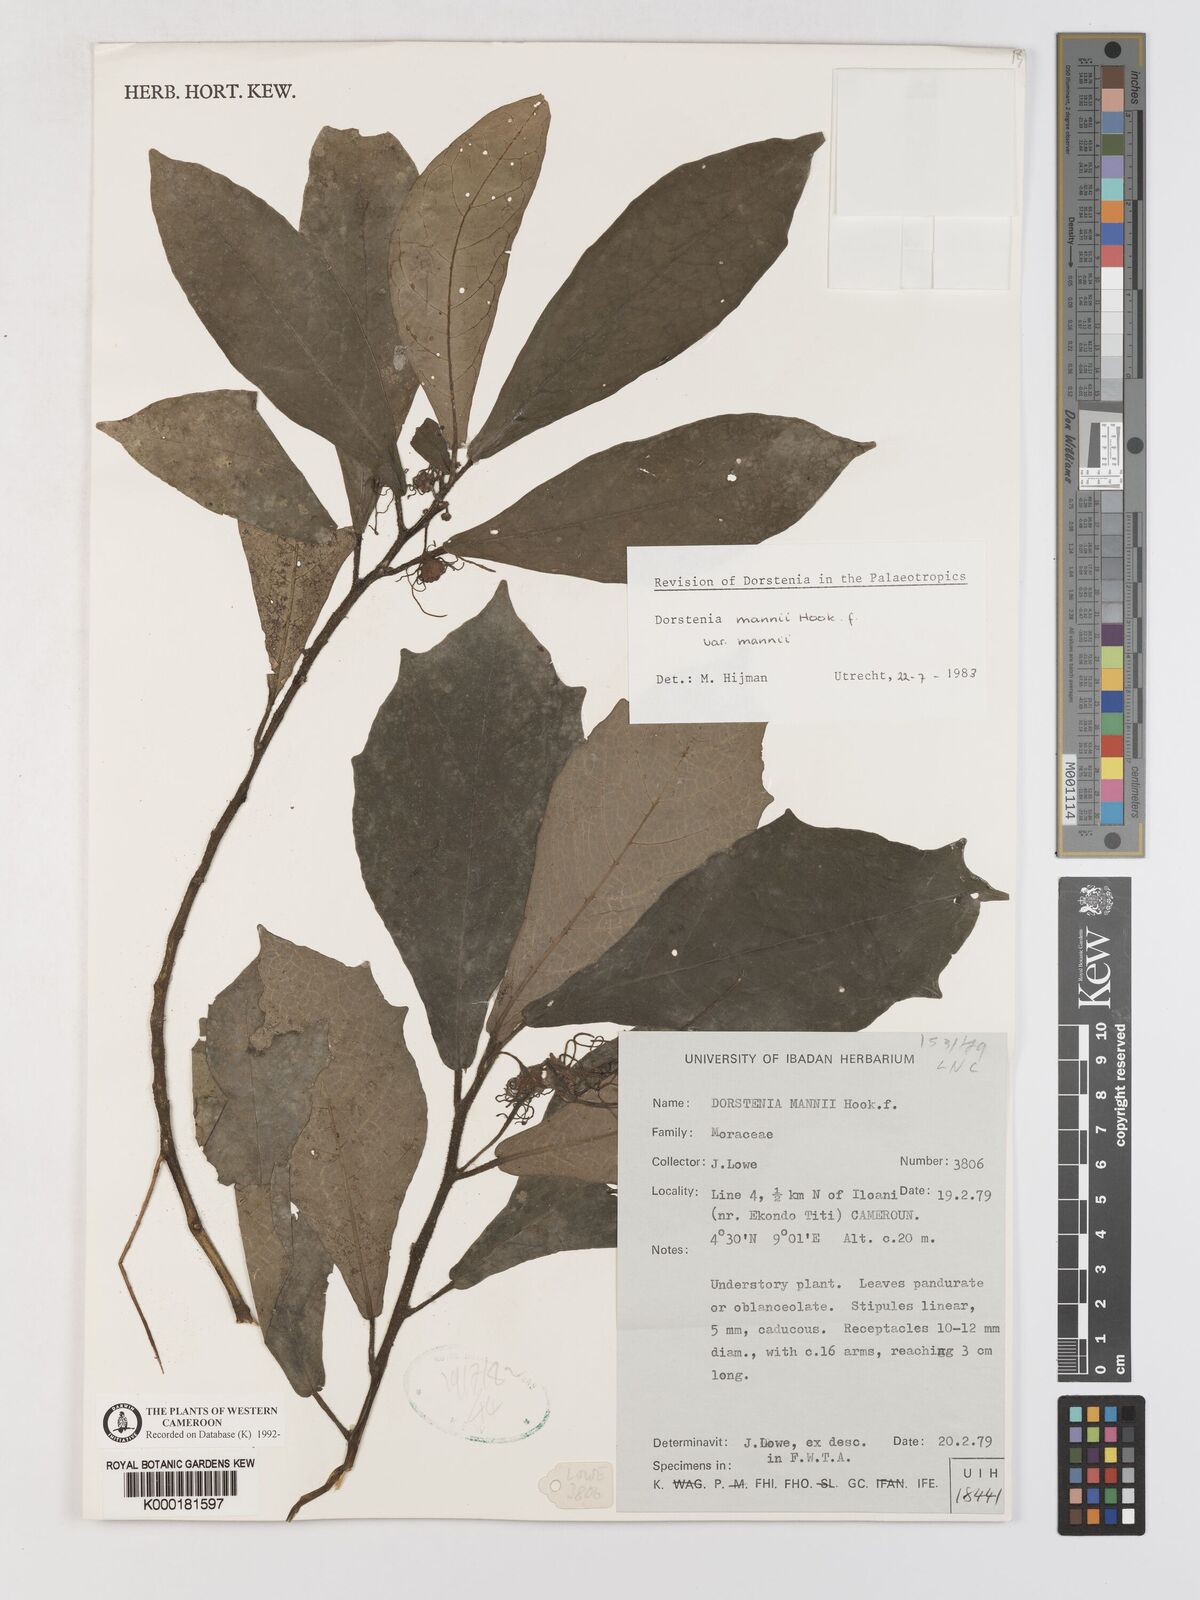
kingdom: Plantae
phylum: Tracheophyta
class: Magnoliopsida
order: Rosales
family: Moraceae
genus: Dorstenia
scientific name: Dorstenia mannii
